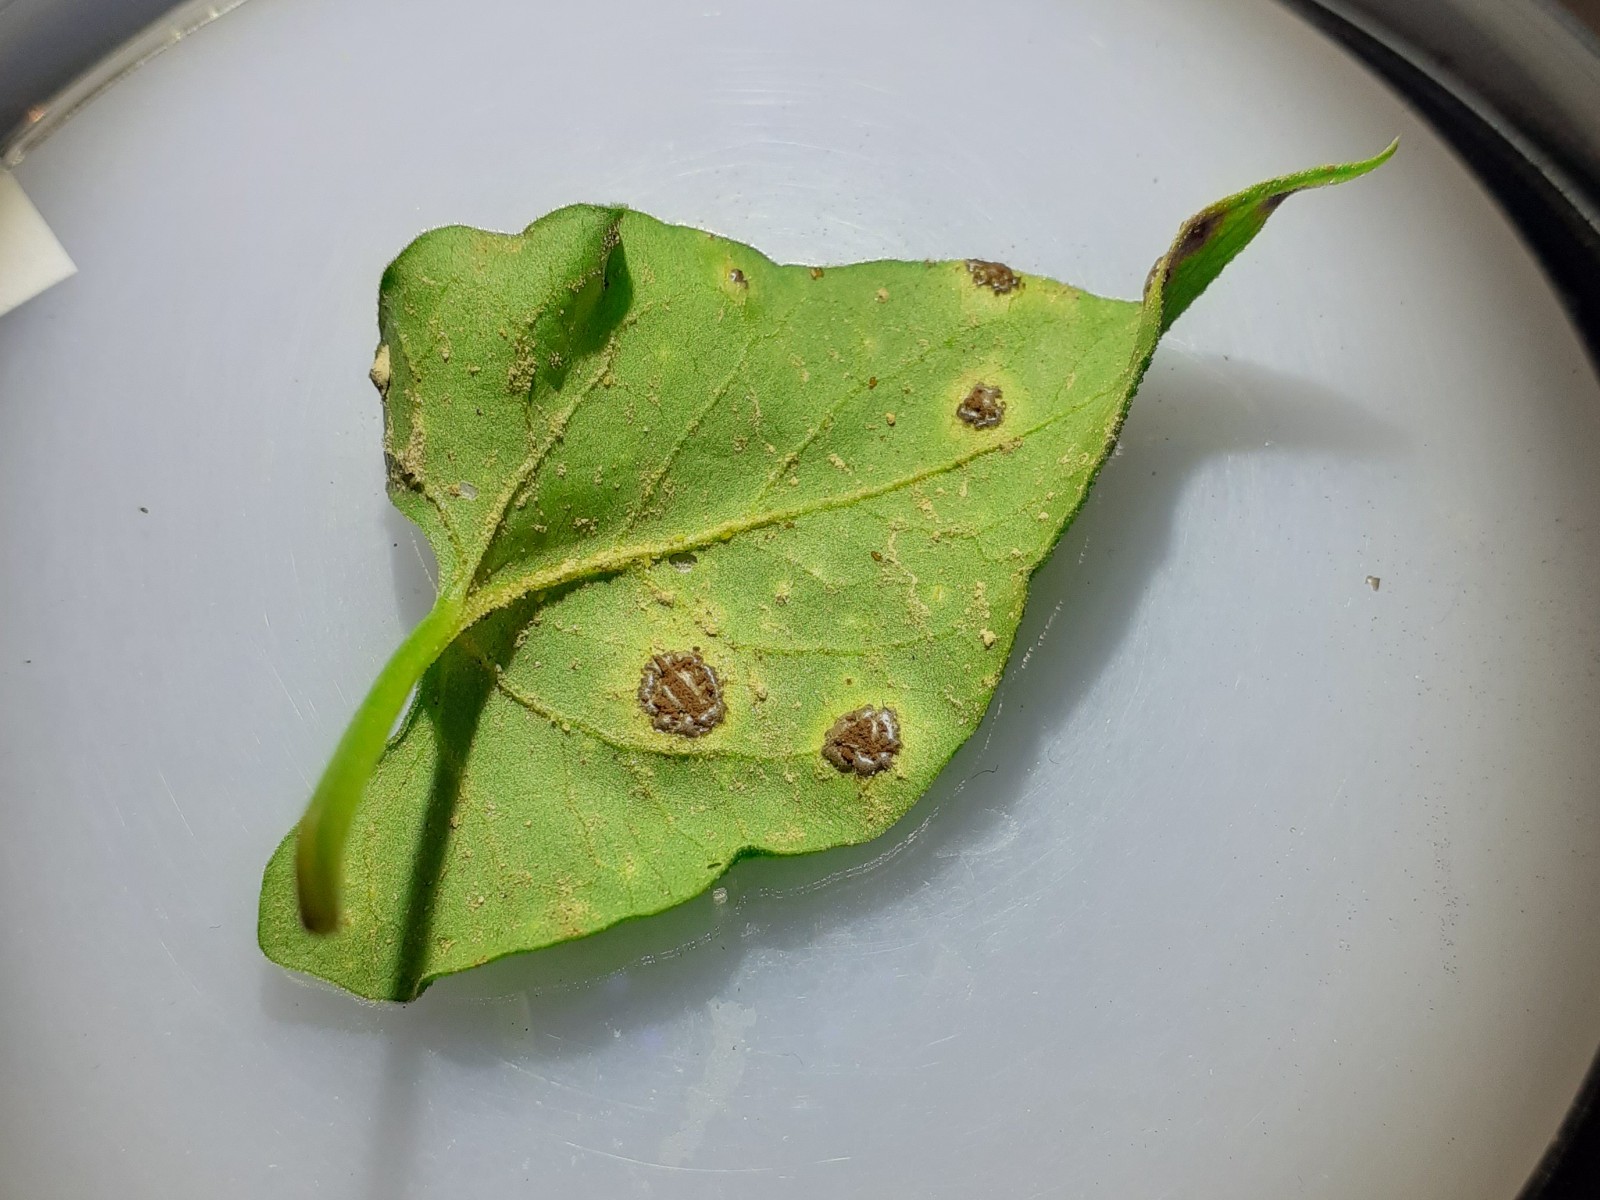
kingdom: Fungi
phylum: Basidiomycota
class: Pucciniomycetes
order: Pucciniales
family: Pucciniaceae
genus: Puccinia
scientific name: Puccinia polygoni-amphibii
